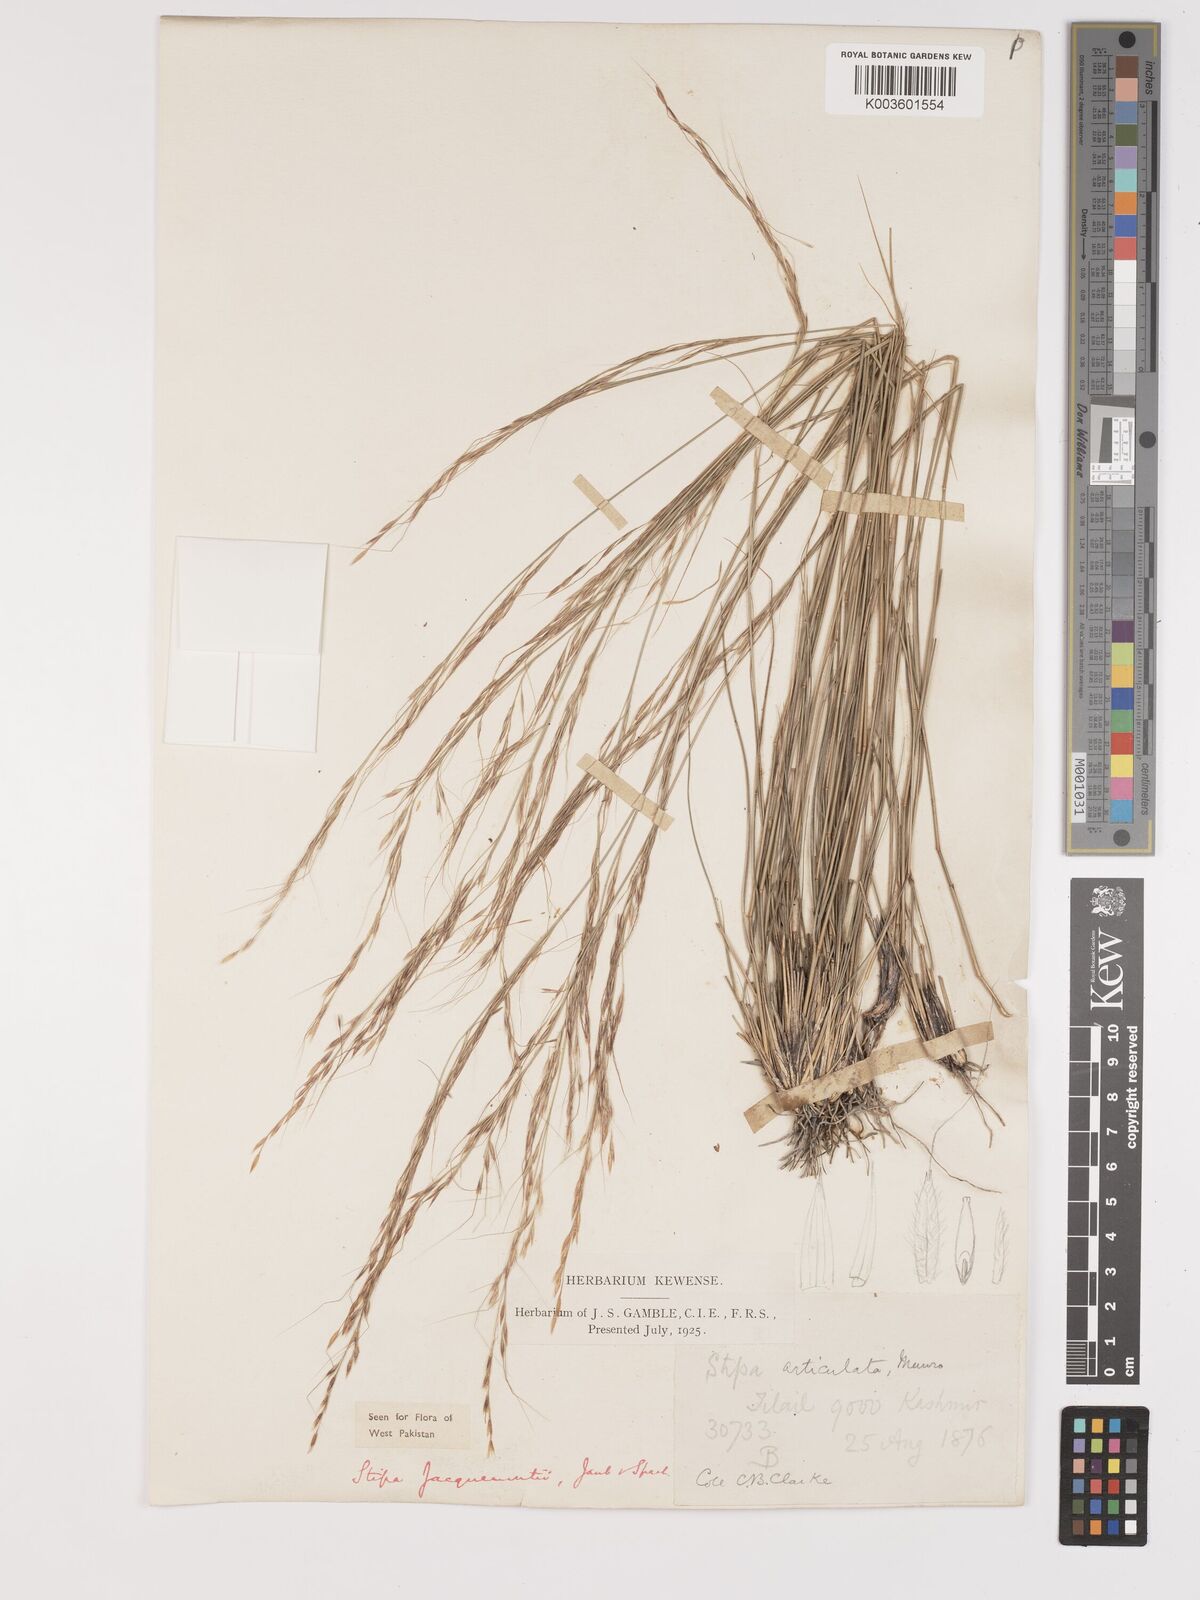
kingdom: Plantae
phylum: Tracheophyta
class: Liliopsida
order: Poales
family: Poaceae
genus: Achnatherum
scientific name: Achnatherum jacquemontii
